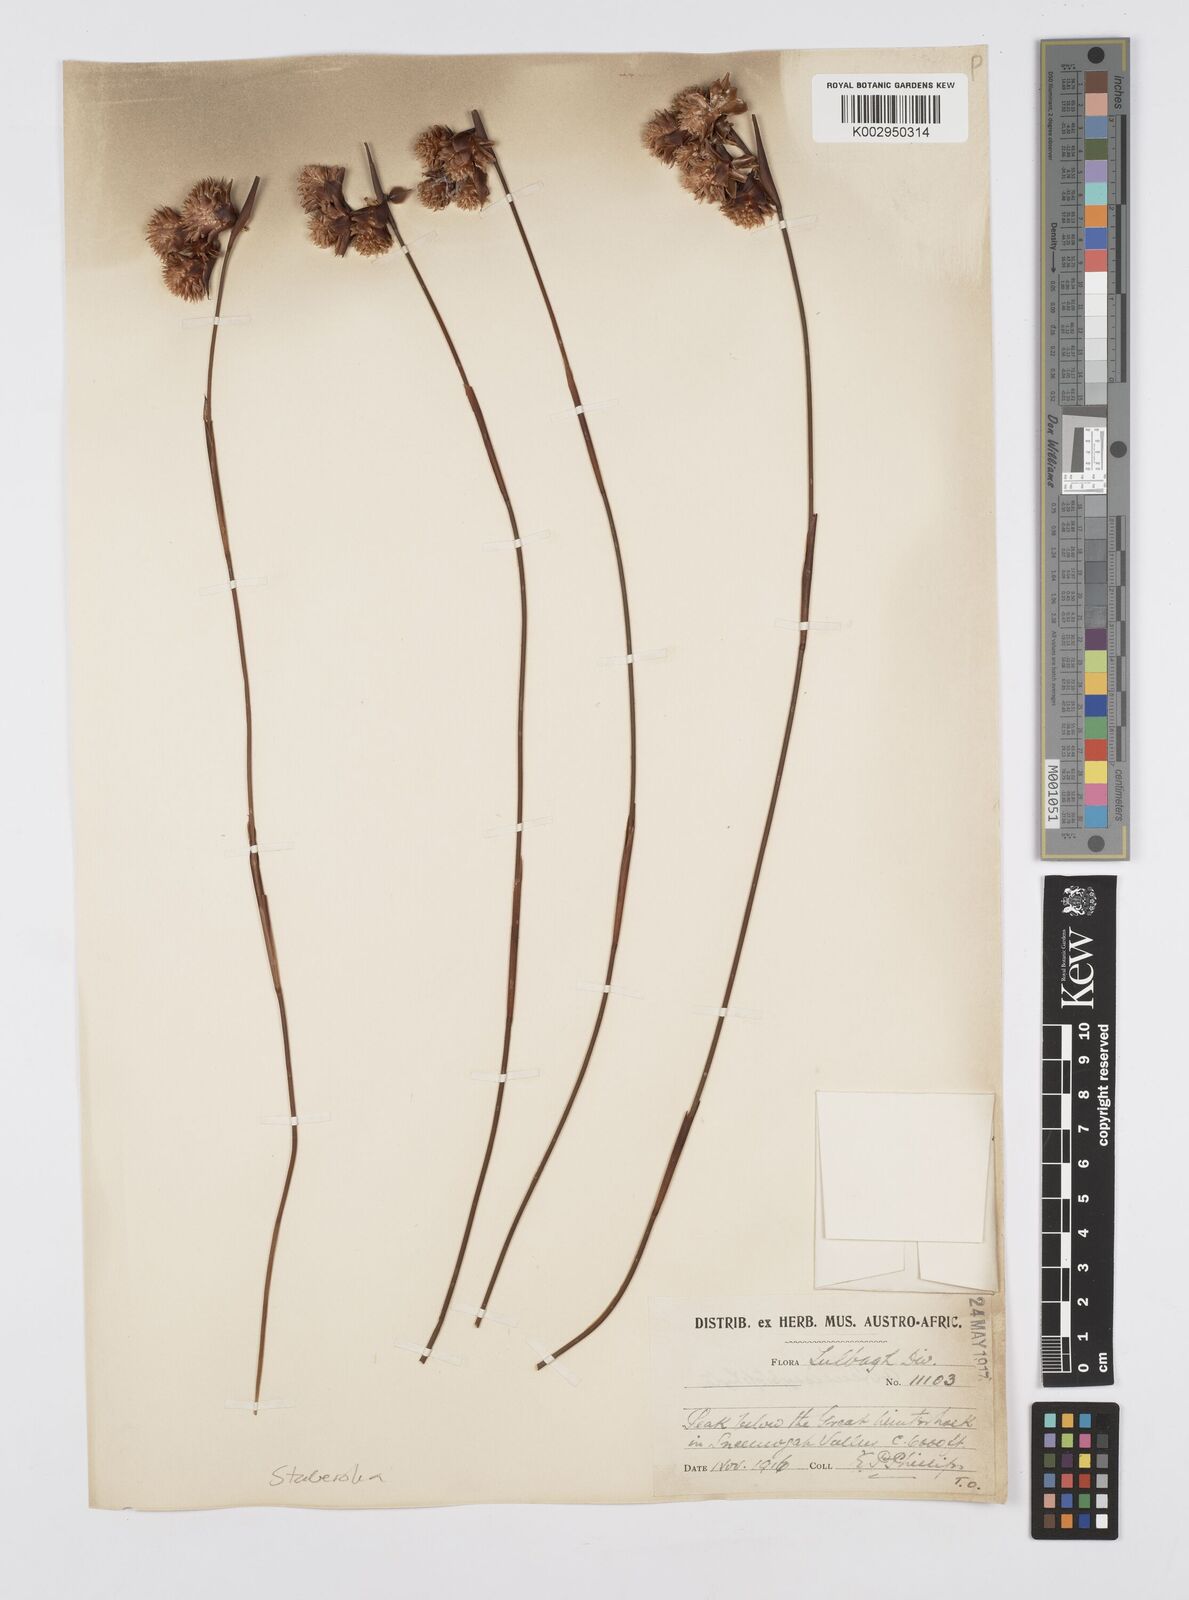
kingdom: Plantae
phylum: Tracheophyta
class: Liliopsida
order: Poales
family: Restionaceae
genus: Staberoha
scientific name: Staberoha cernua
